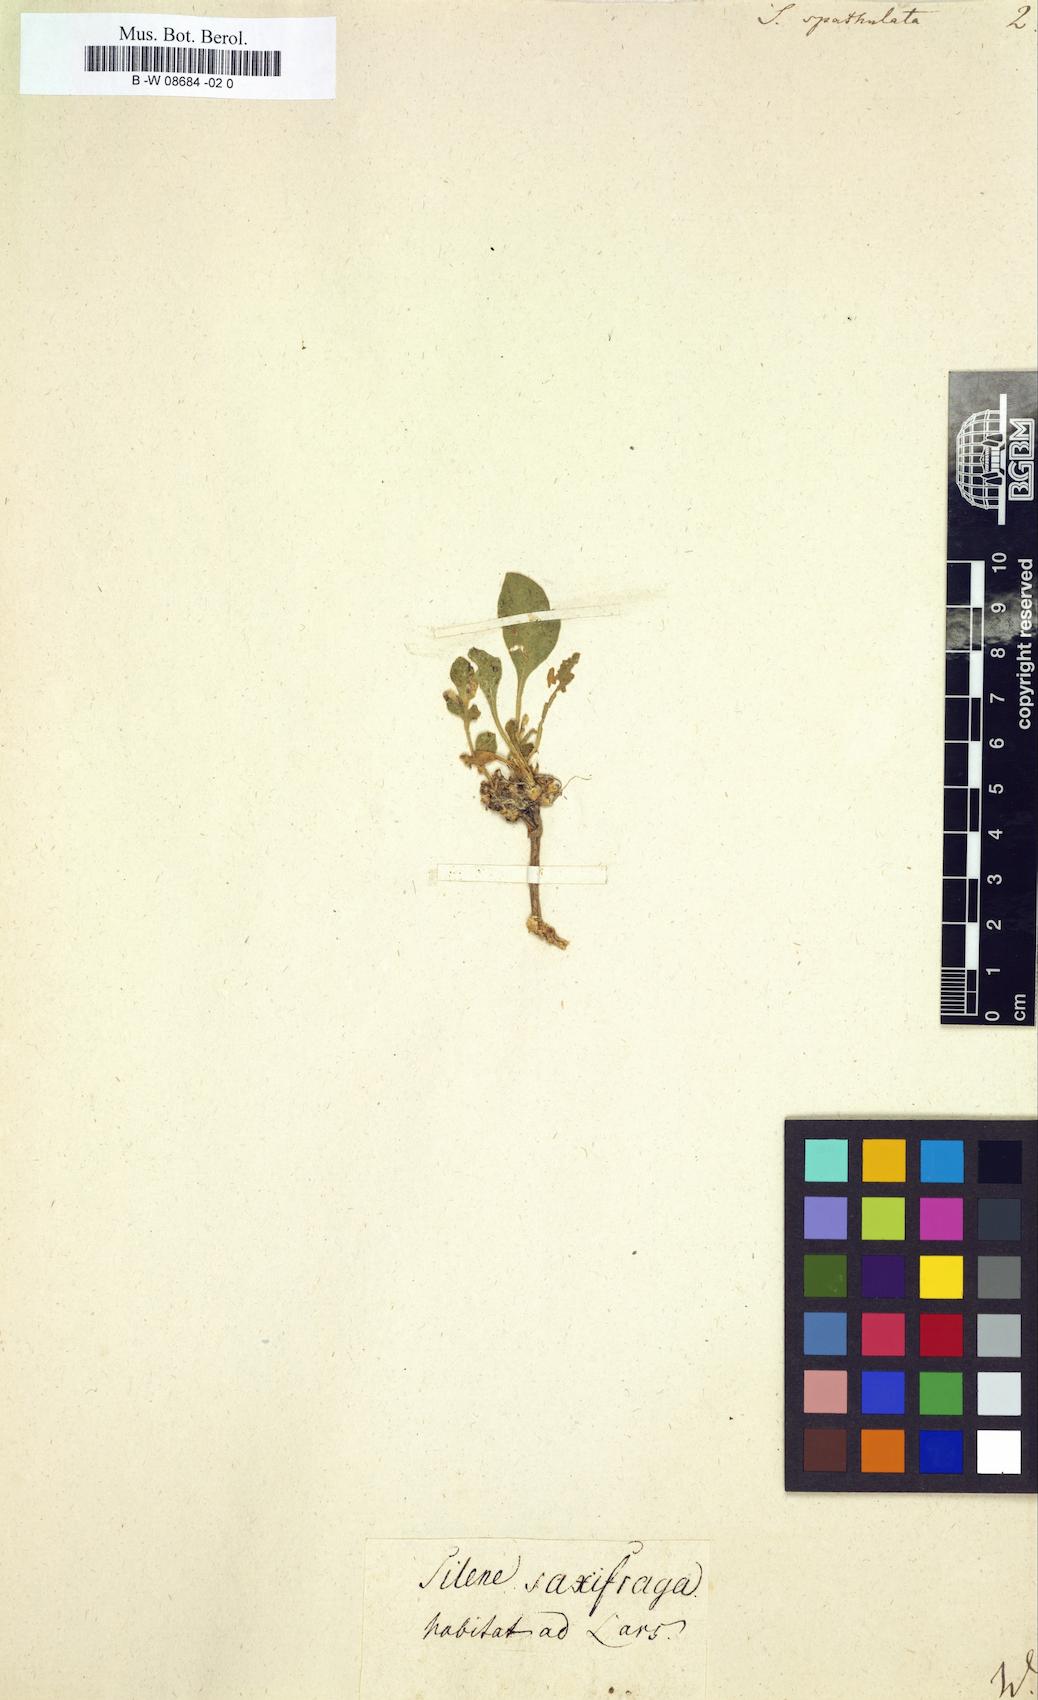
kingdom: Plantae
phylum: Tracheophyta
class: Magnoliopsida
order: Caryophyllales
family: Caryophyllaceae
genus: Silene
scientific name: Silene
